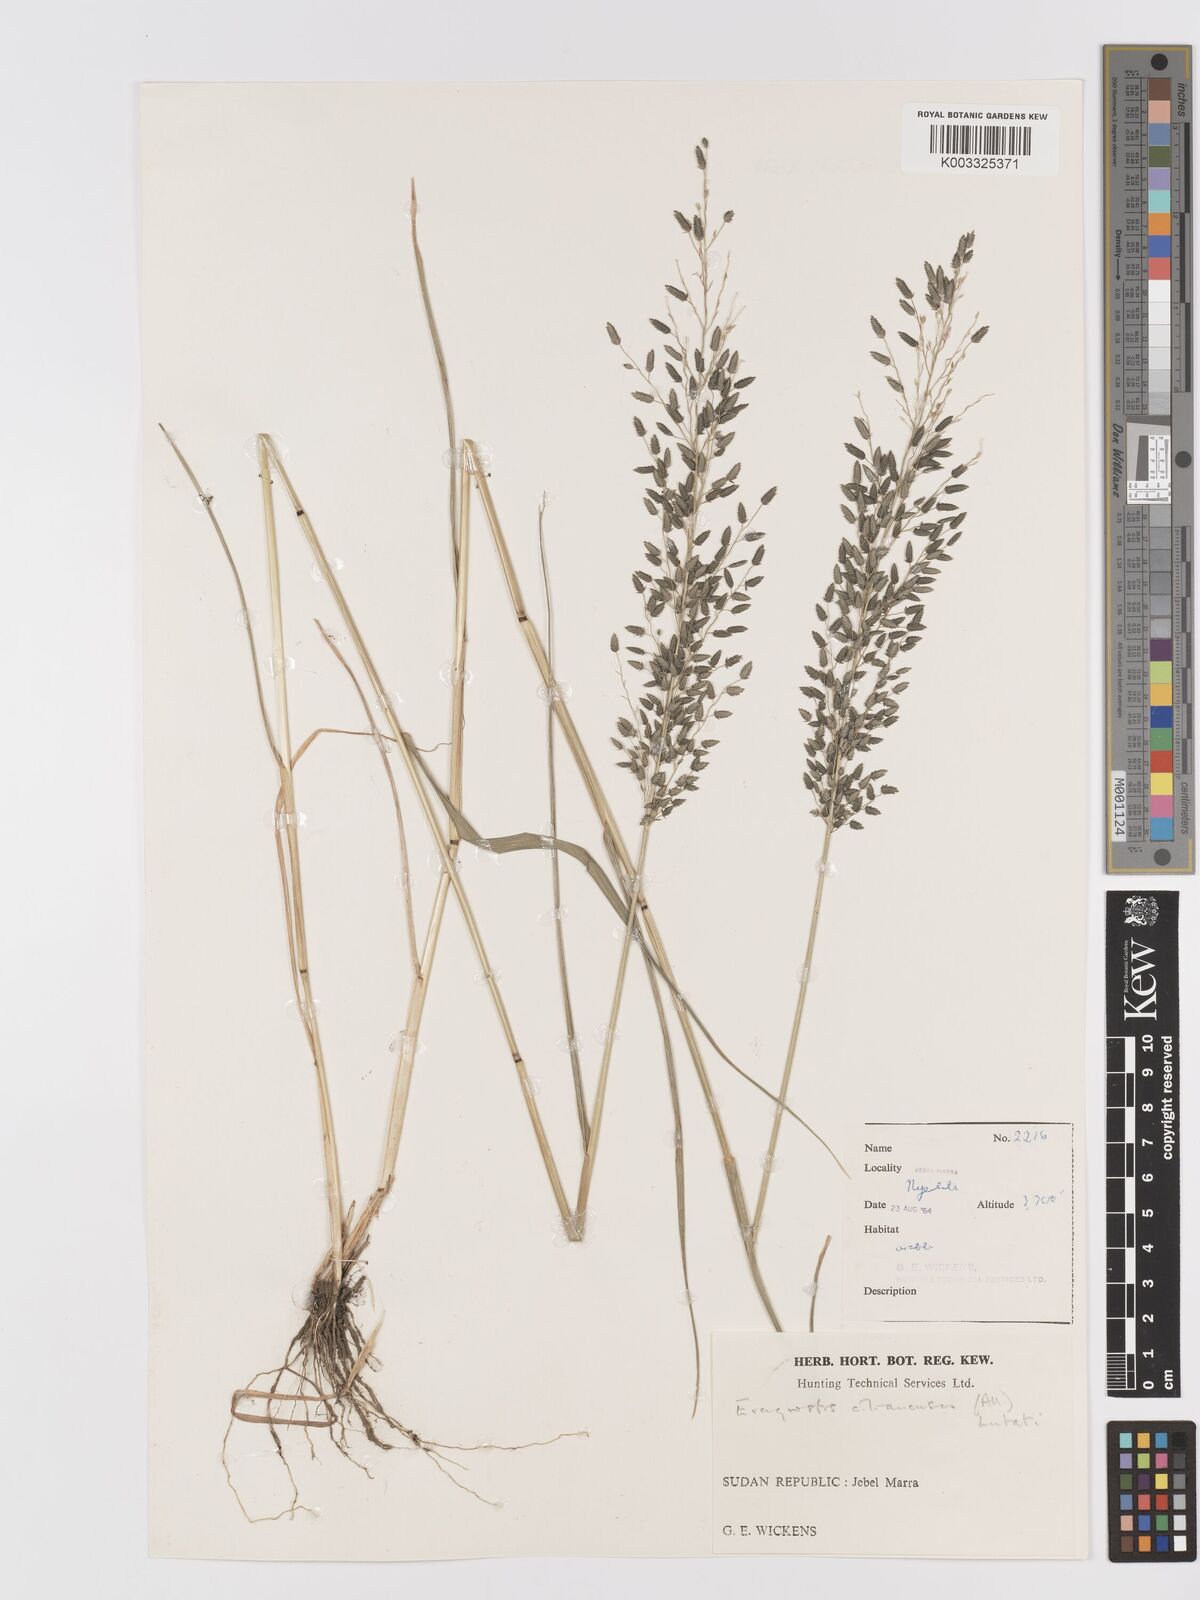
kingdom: Plantae
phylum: Tracheophyta
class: Liliopsida
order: Poales
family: Poaceae
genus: Eragrostis
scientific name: Eragrostis cilianensis
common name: Stinkgrass
